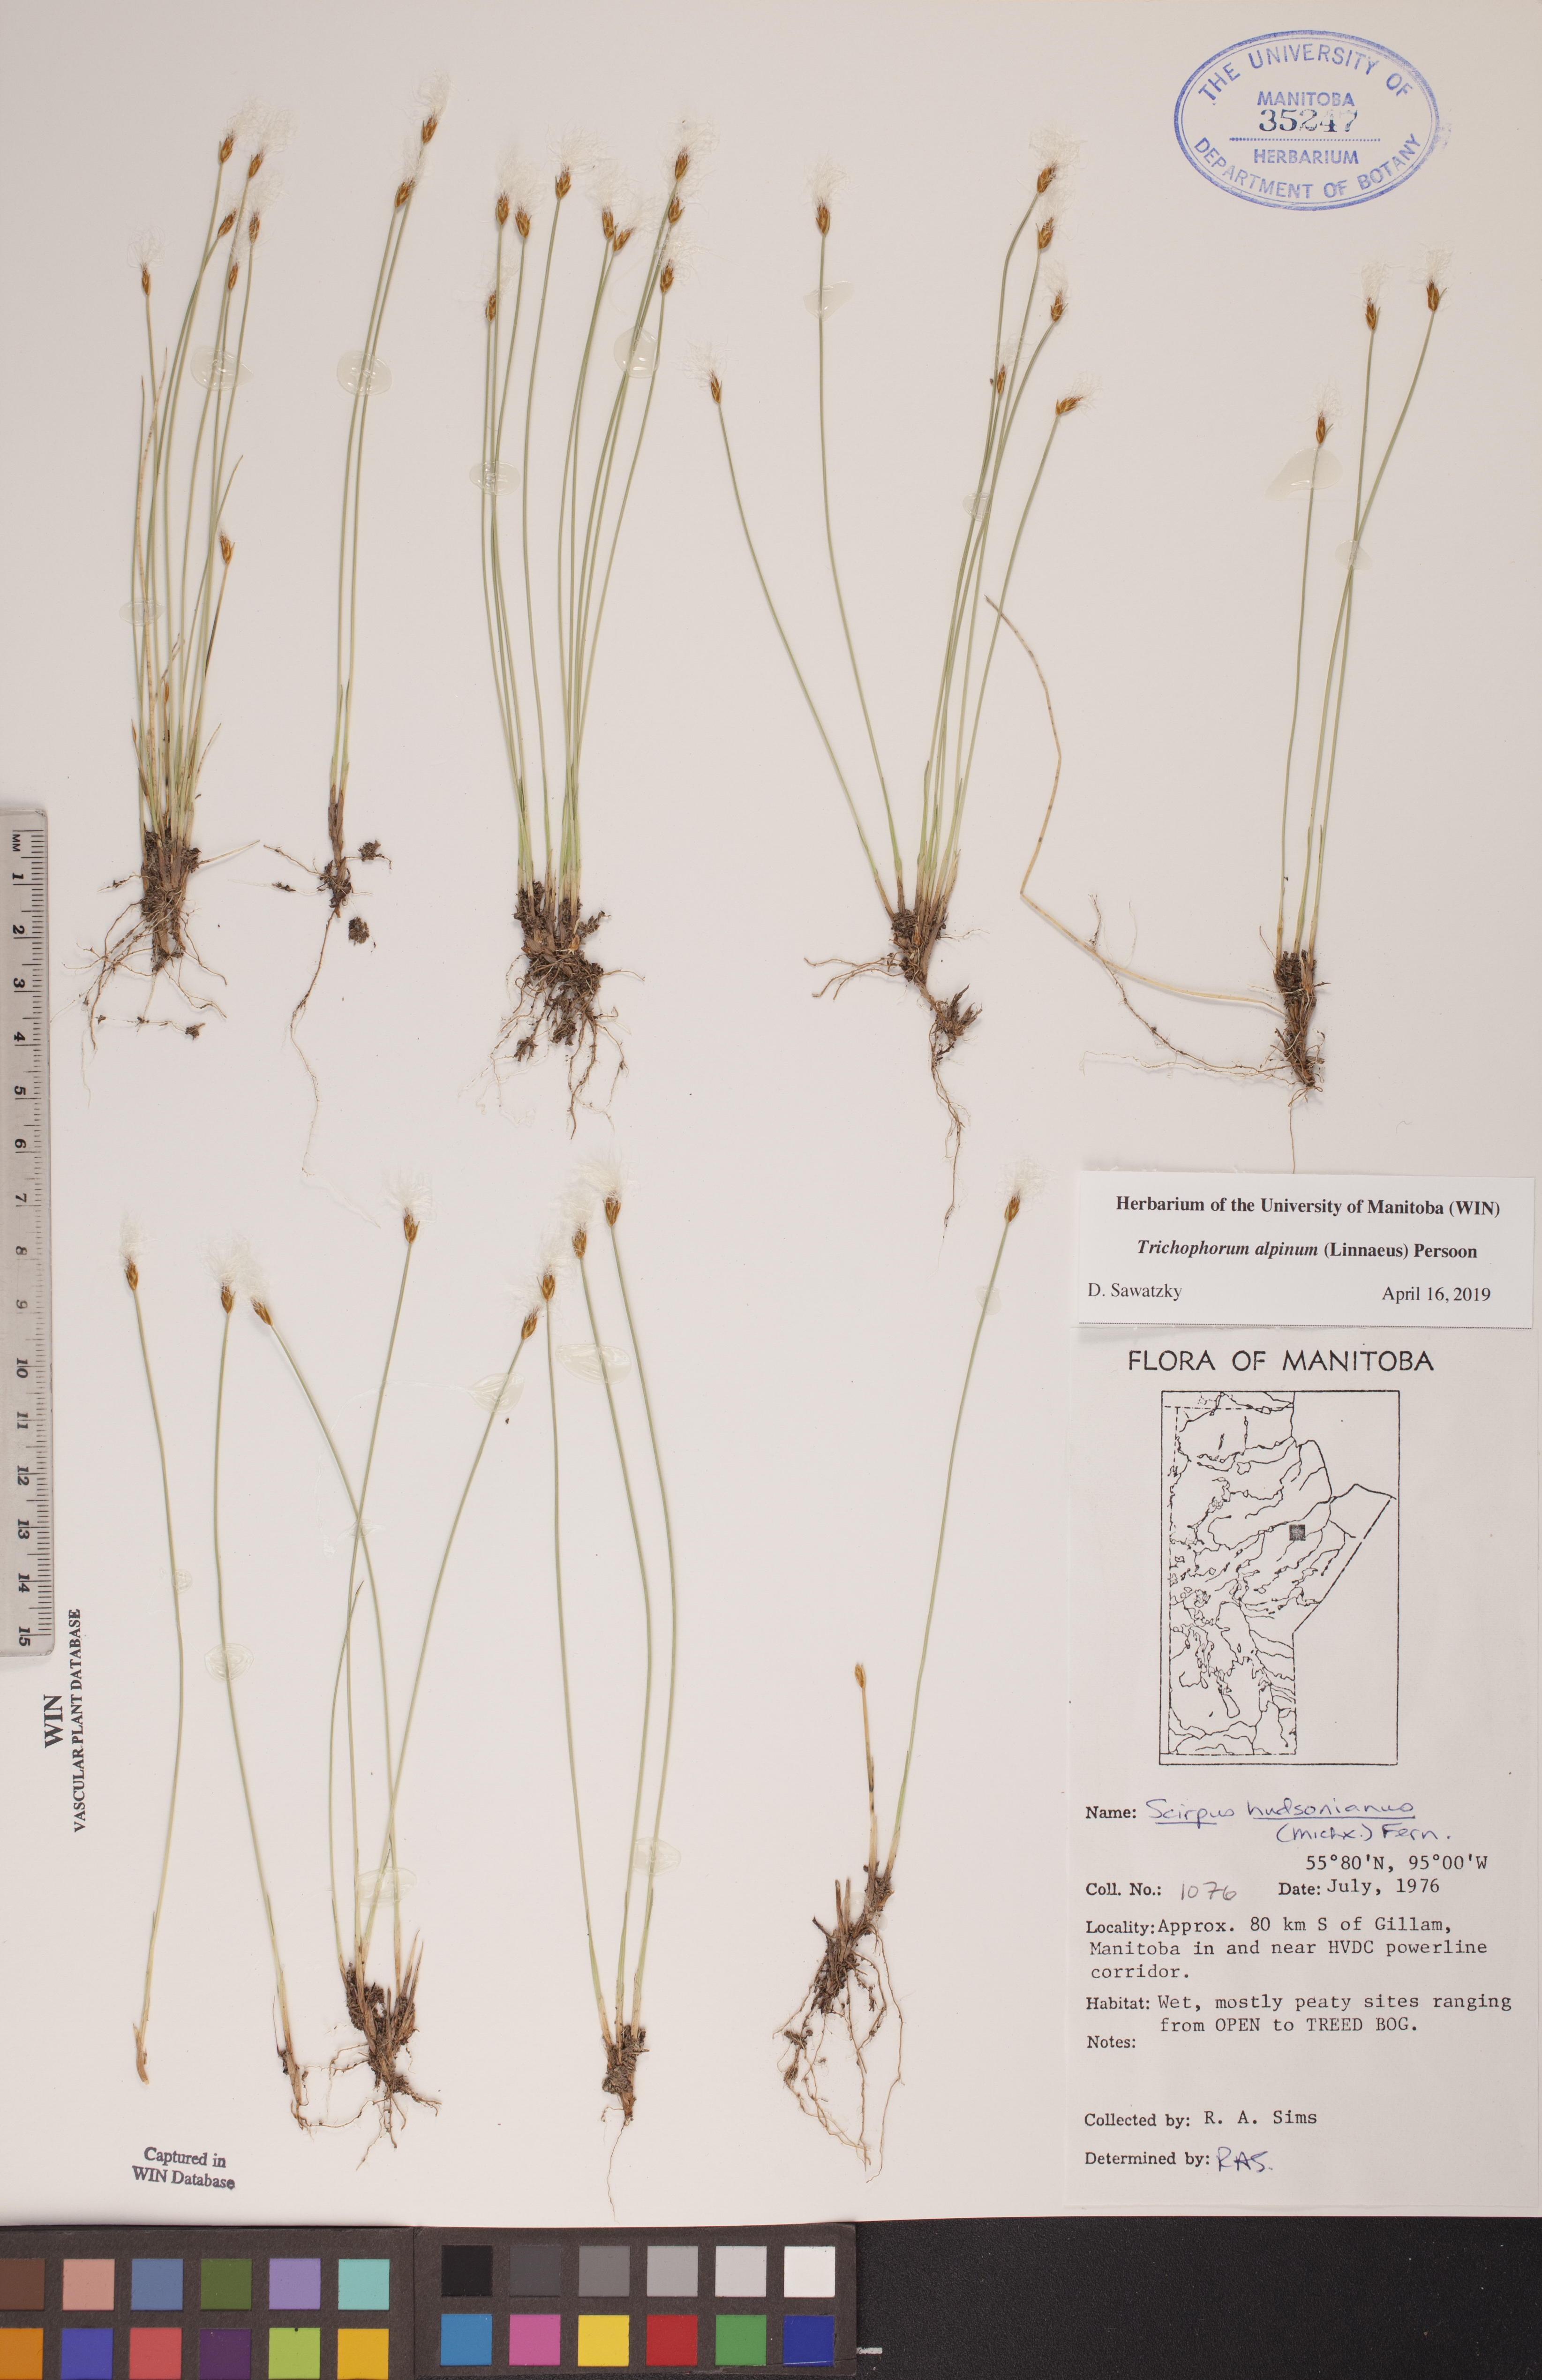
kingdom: Plantae
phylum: Tracheophyta
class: Liliopsida
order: Poales
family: Cyperaceae
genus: Trichophorum
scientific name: Trichophorum alpinum
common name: Alpine bulrush
